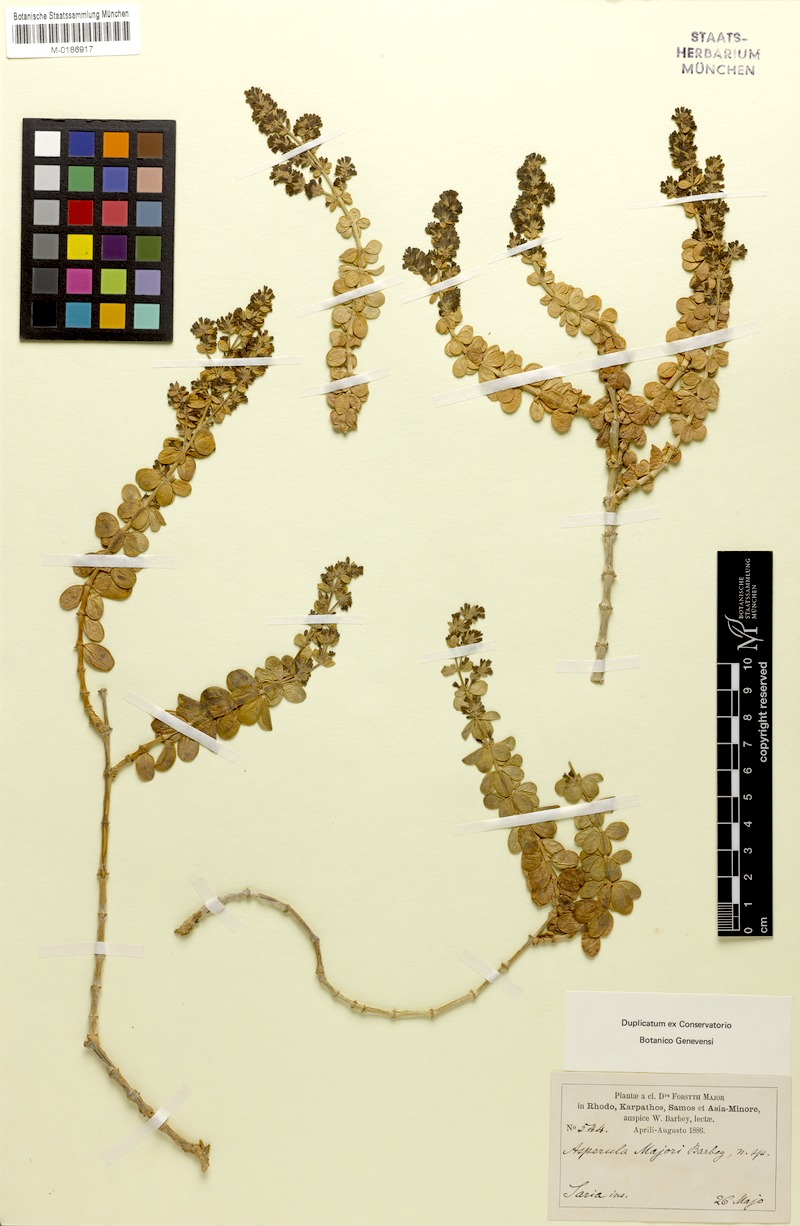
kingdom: Plantae
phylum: Tracheophyta
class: Magnoliopsida
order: Gentianales
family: Rubiaceae
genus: Asperula
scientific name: Asperula tournefortii
